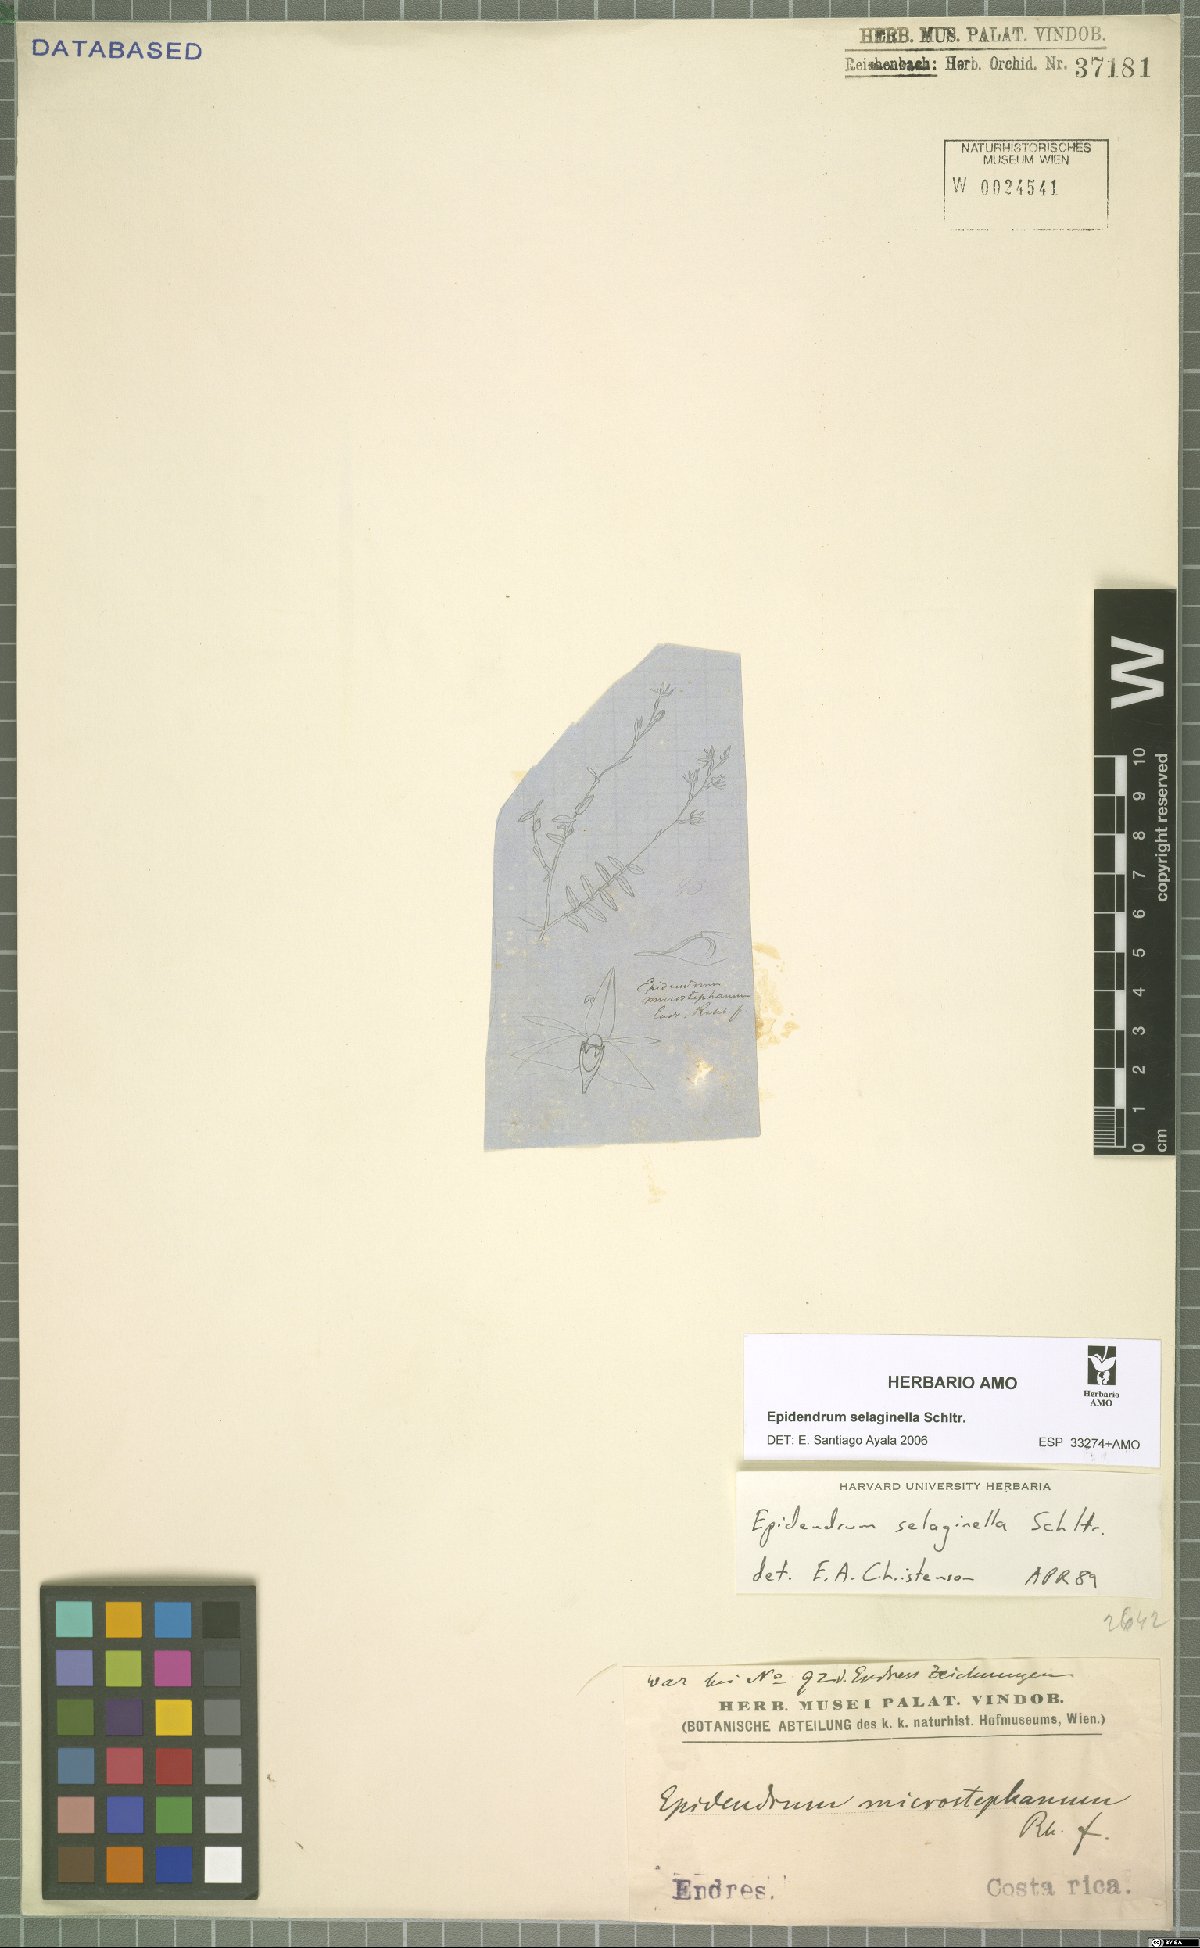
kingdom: Plantae
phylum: Tracheophyta
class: Liliopsida
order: Asparagales
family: Orchidaceae
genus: Epidendrum
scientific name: Epidendrum selaginella
